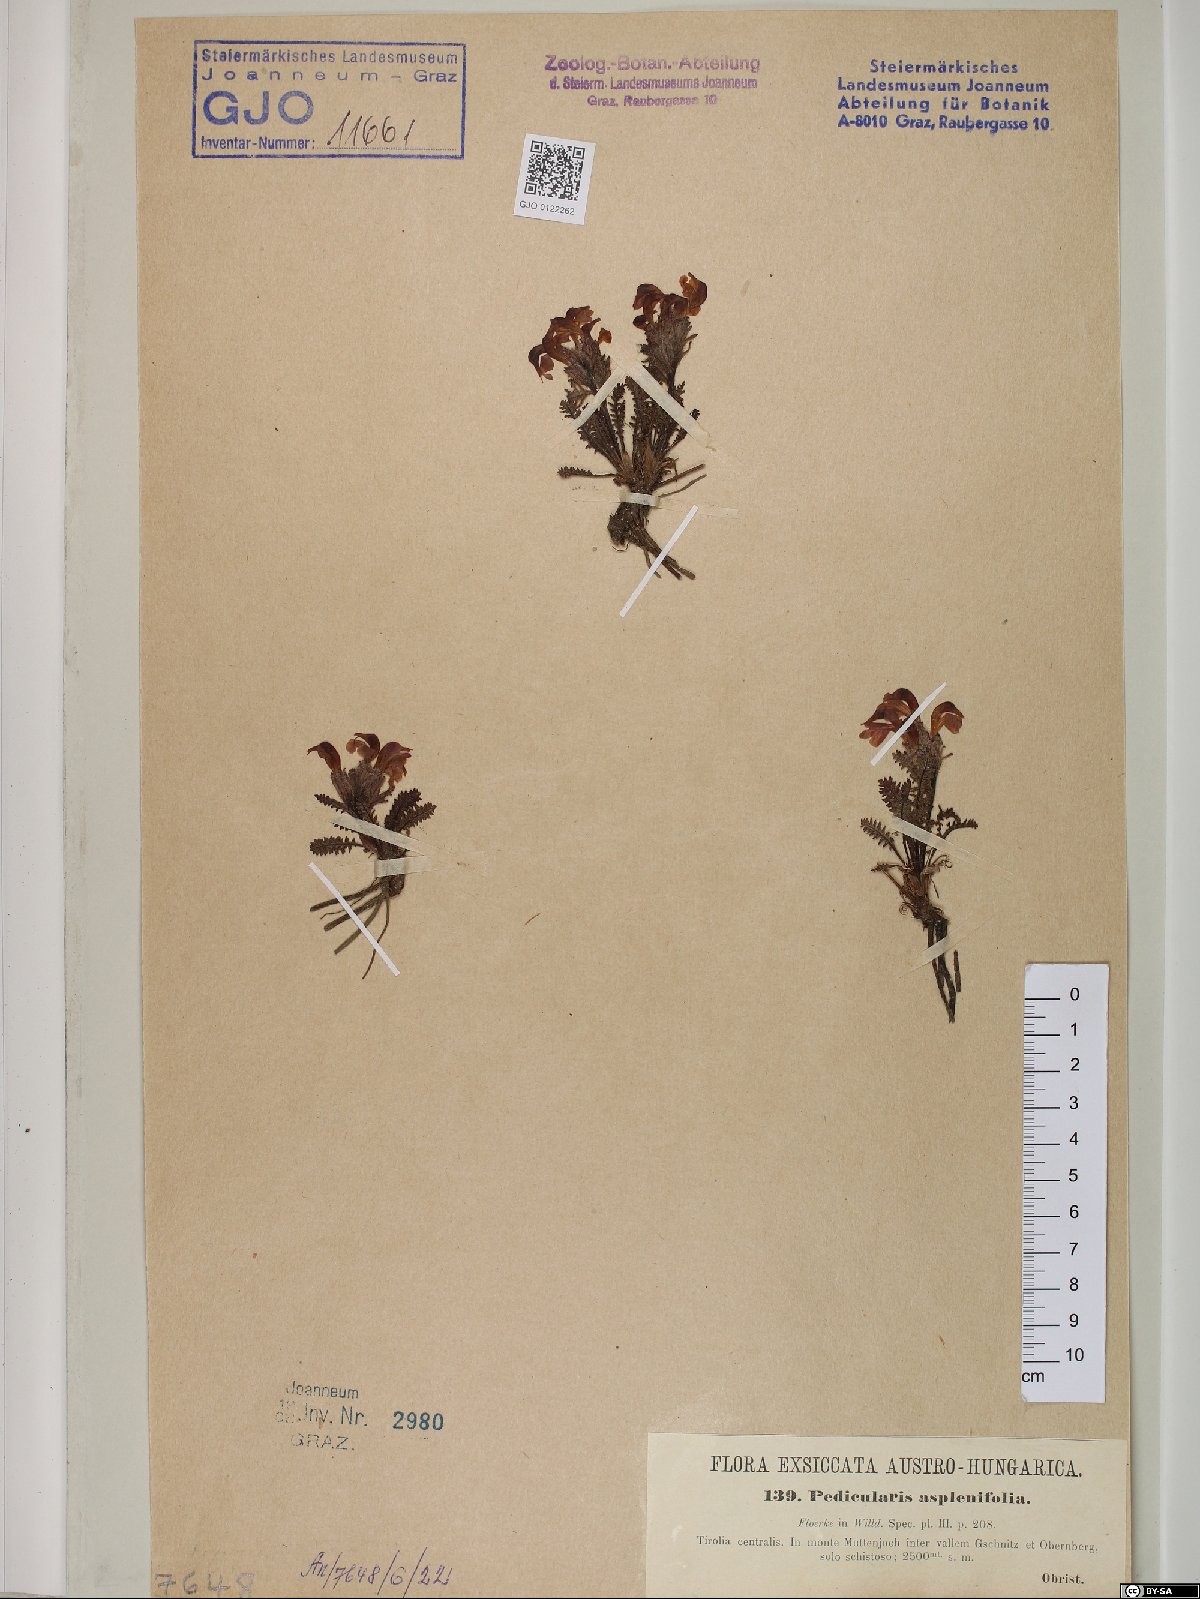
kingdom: Plantae
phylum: Tracheophyta
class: Magnoliopsida
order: Lamiales
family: Orobanchaceae
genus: Pedicularis
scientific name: Pedicularis asplenifolia
